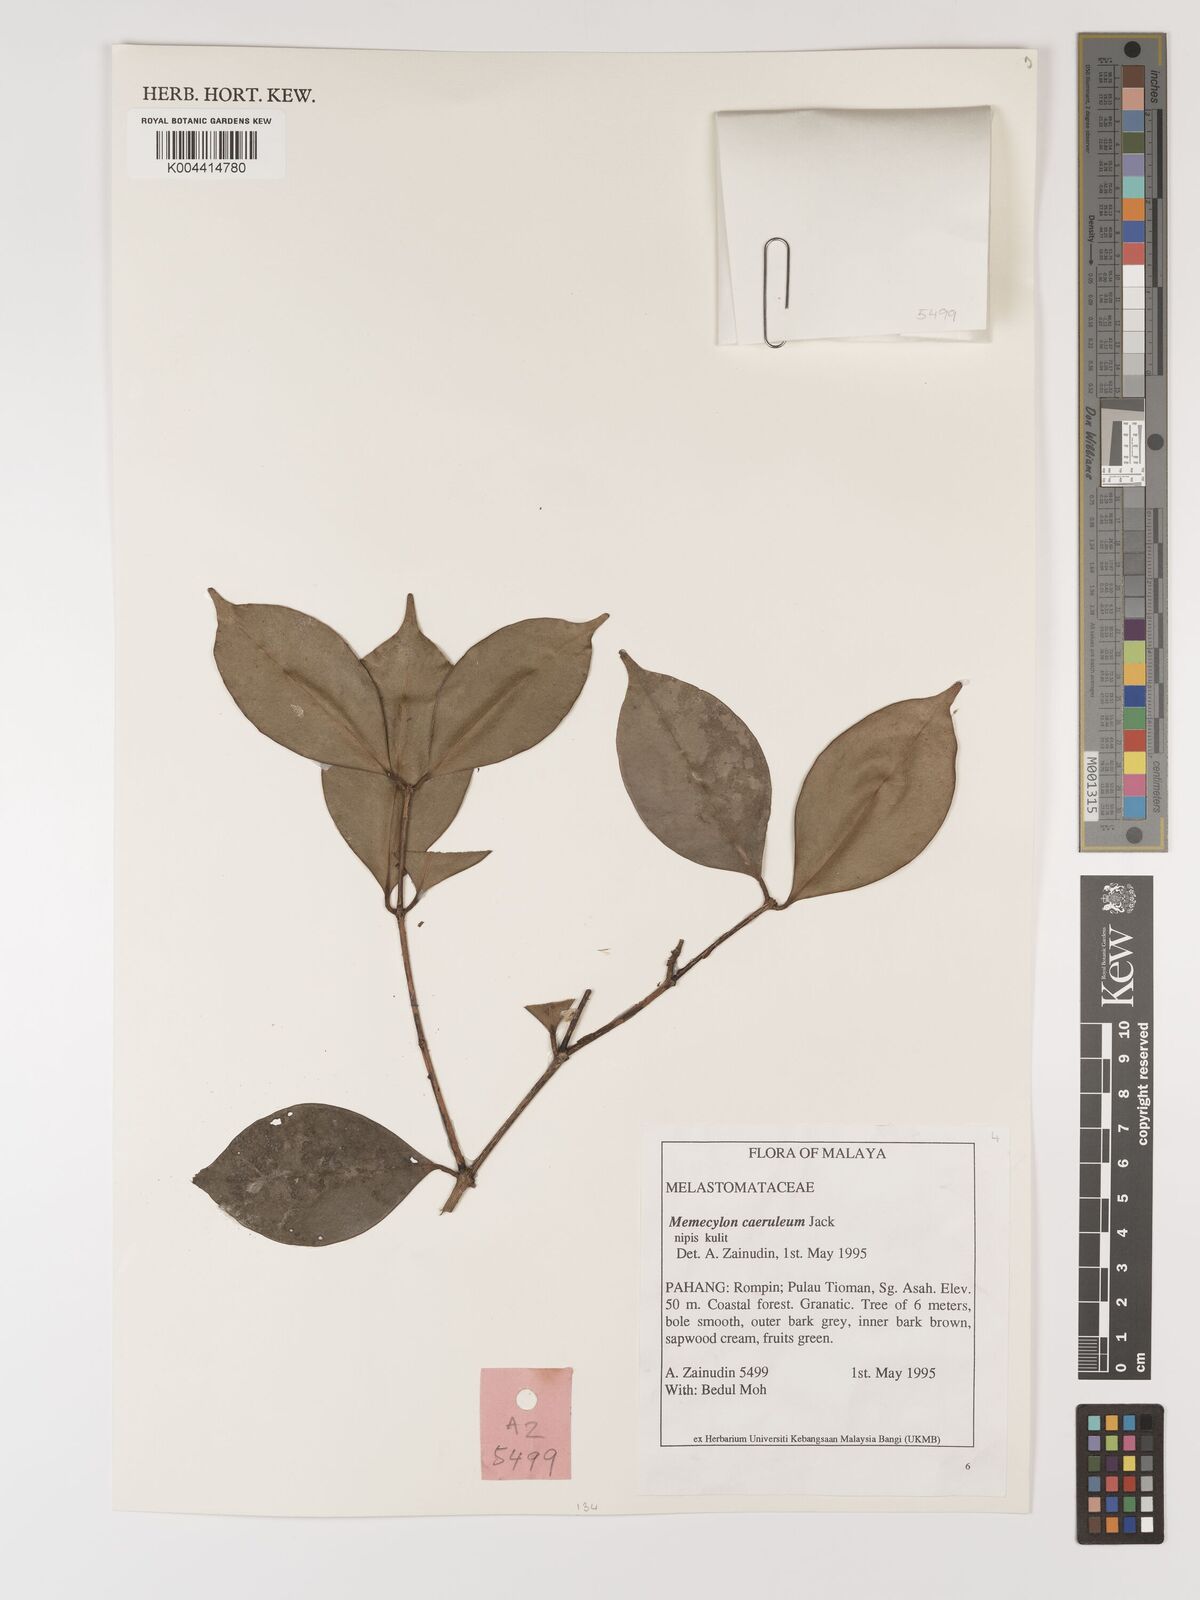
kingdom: Plantae
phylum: Tracheophyta
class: Magnoliopsida
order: Myrtales
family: Melastomataceae
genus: Memecylon
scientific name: Memecylon
